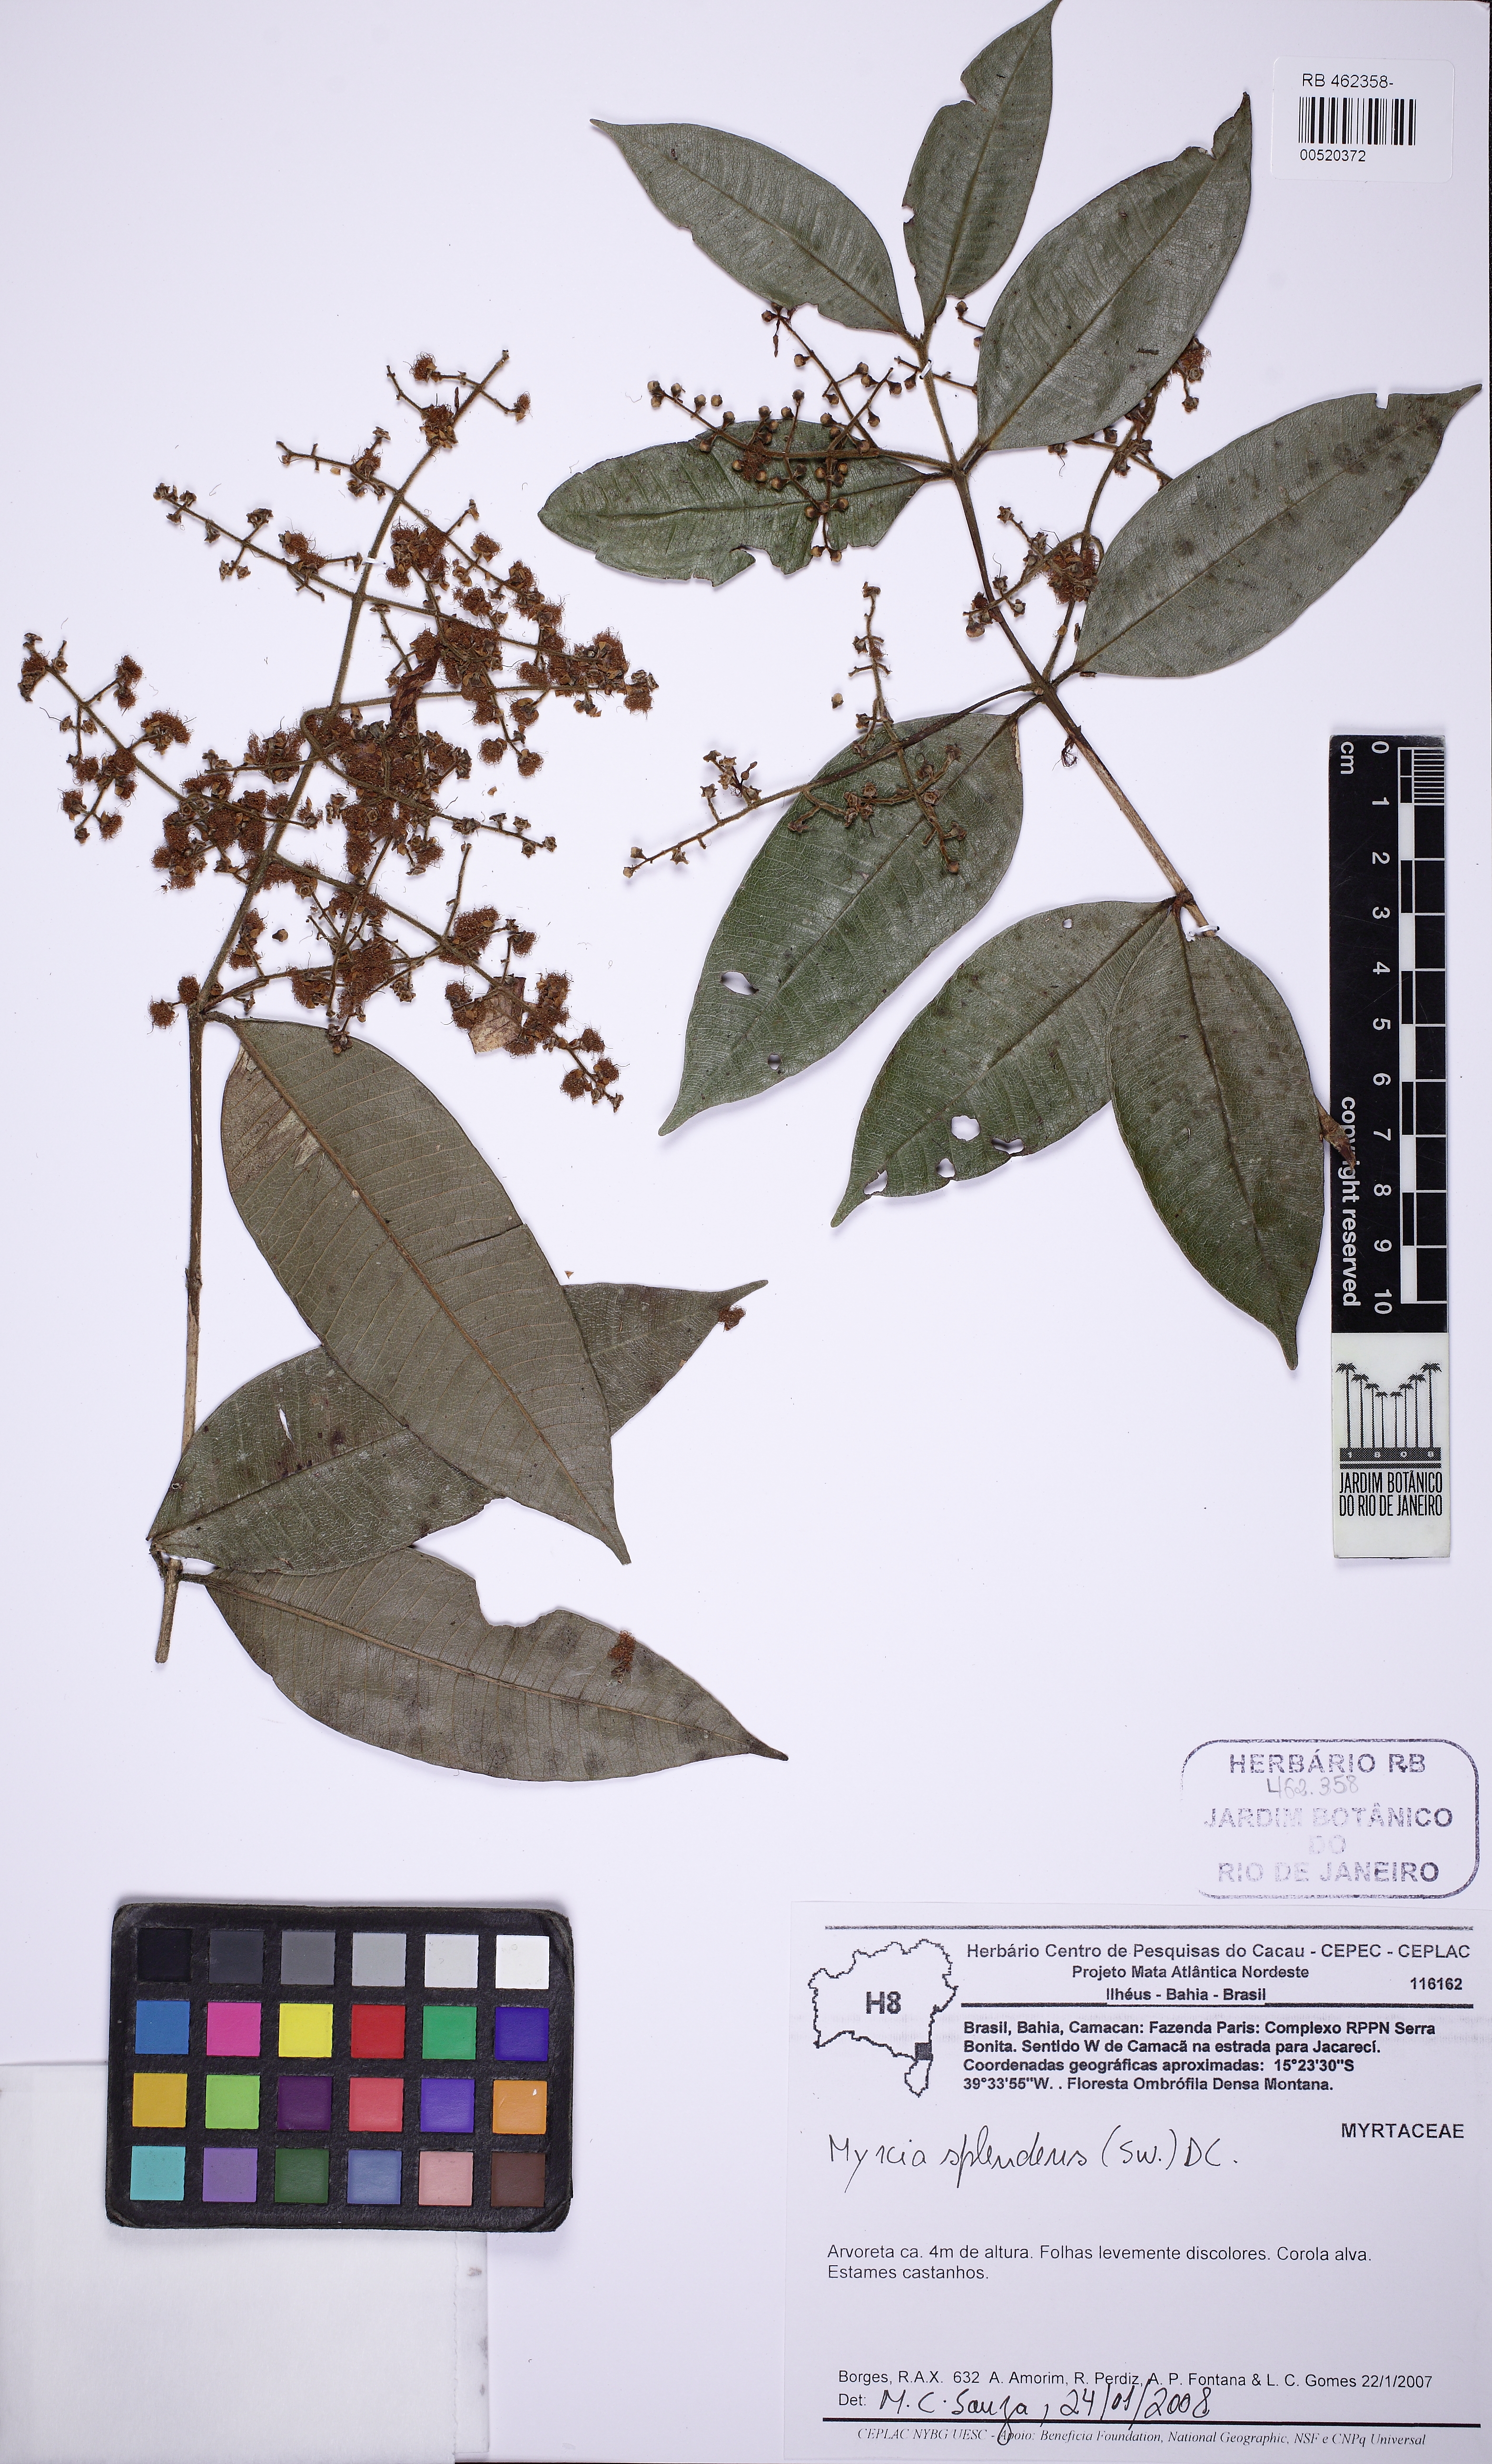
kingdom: Plantae
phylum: Tracheophyta
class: Magnoliopsida
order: Myrtales
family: Myrtaceae
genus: Myrcia
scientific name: Myrcia splendens
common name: Surinam cherry
